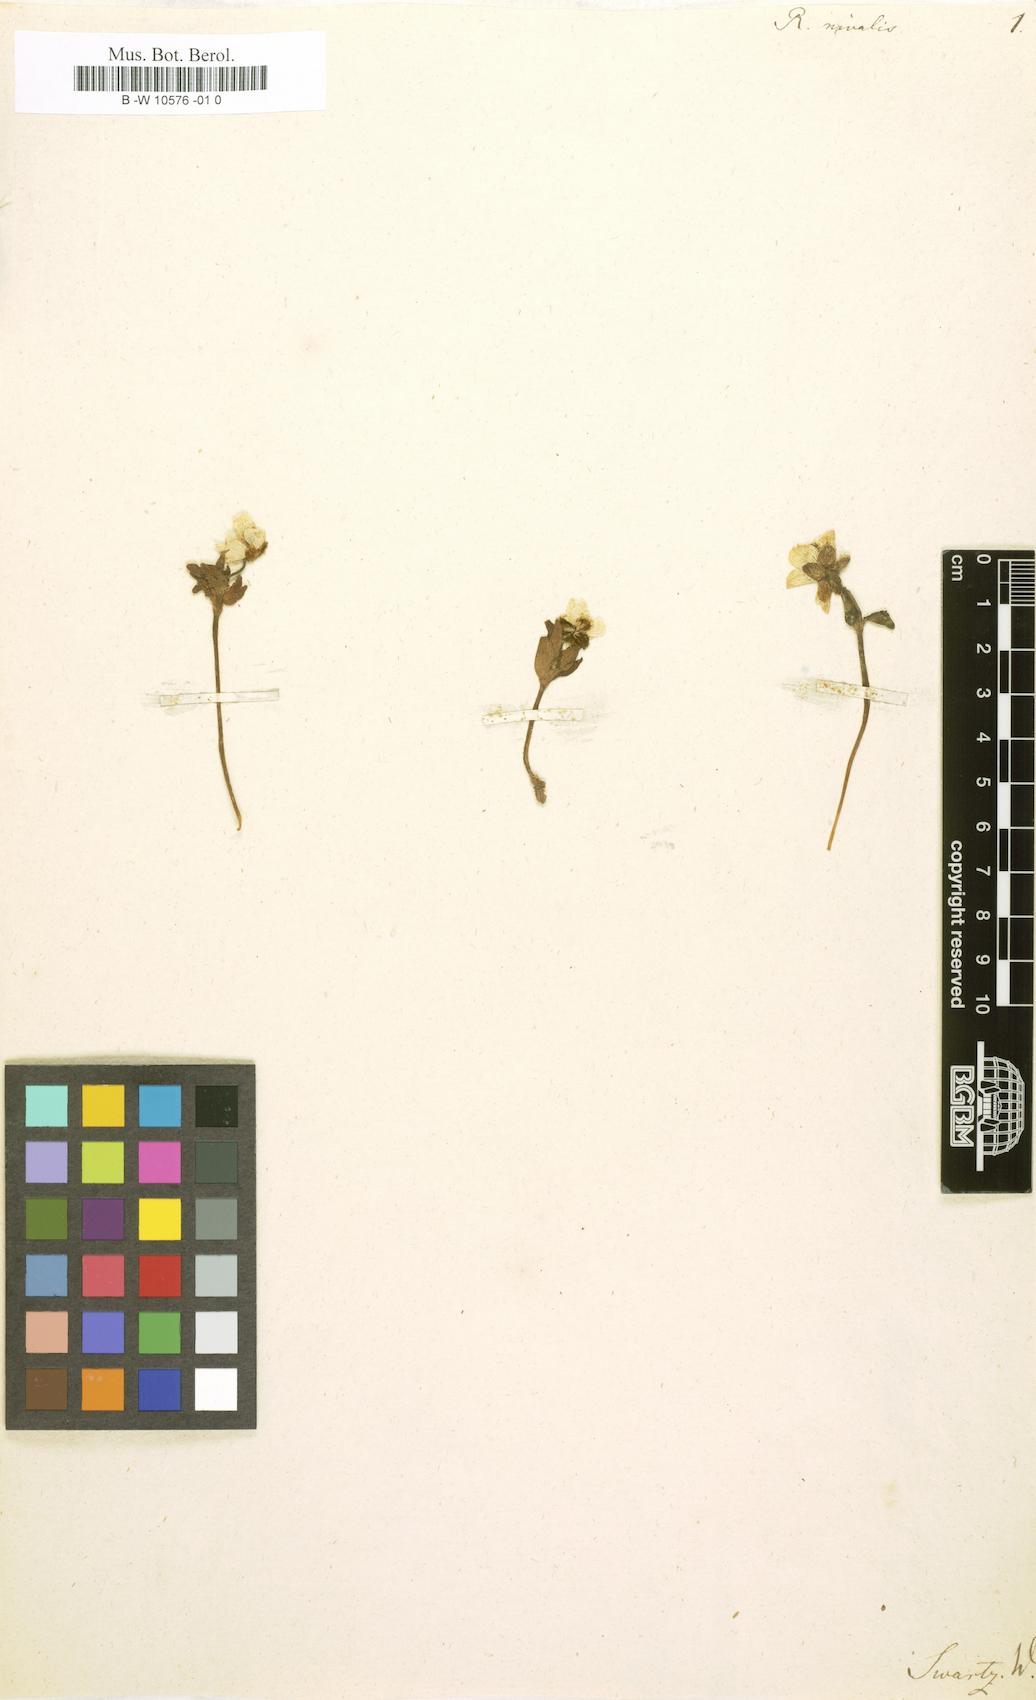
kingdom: Plantae
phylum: Tracheophyta
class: Magnoliopsida
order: Ranunculales
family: Ranunculaceae
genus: Ranunculus
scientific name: Ranunculus nivalis
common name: Snow buttercup
